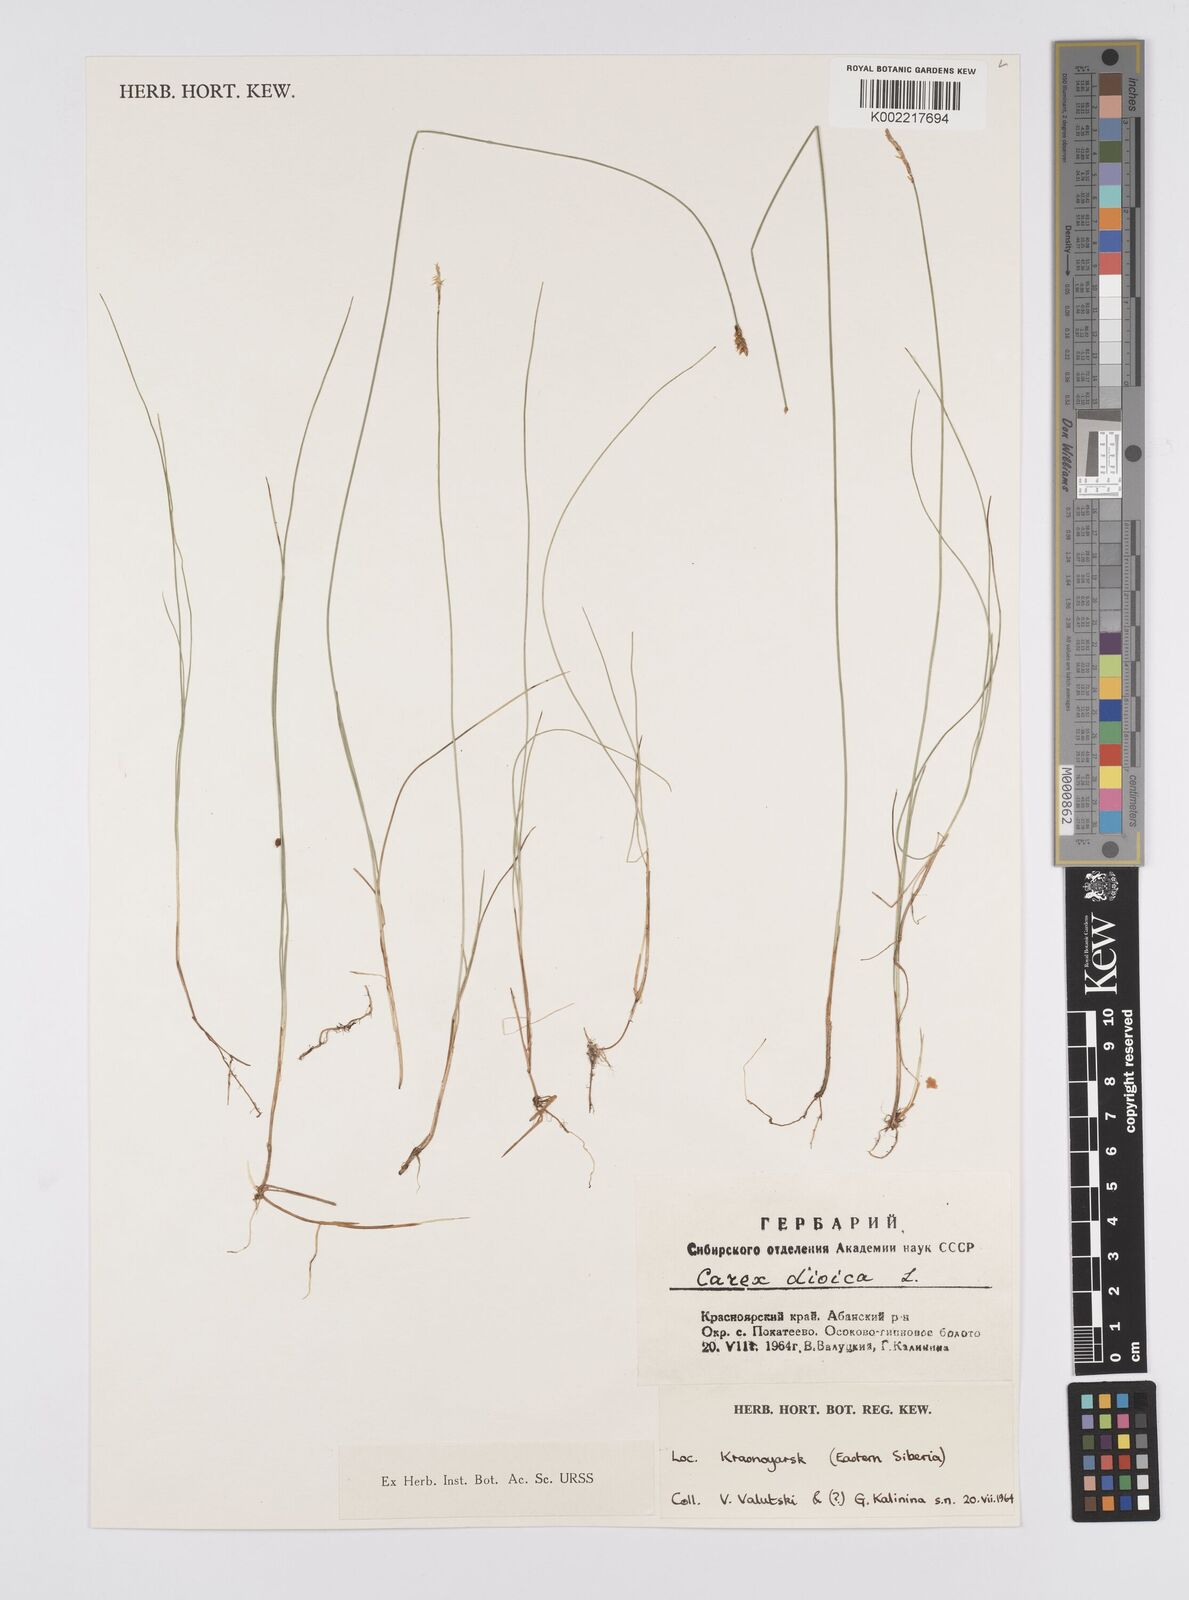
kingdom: Plantae
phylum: Tracheophyta
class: Liliopsida
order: Poales
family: Cyperaceae
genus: Carex
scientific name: Carex dioica
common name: Dioecious sedge
